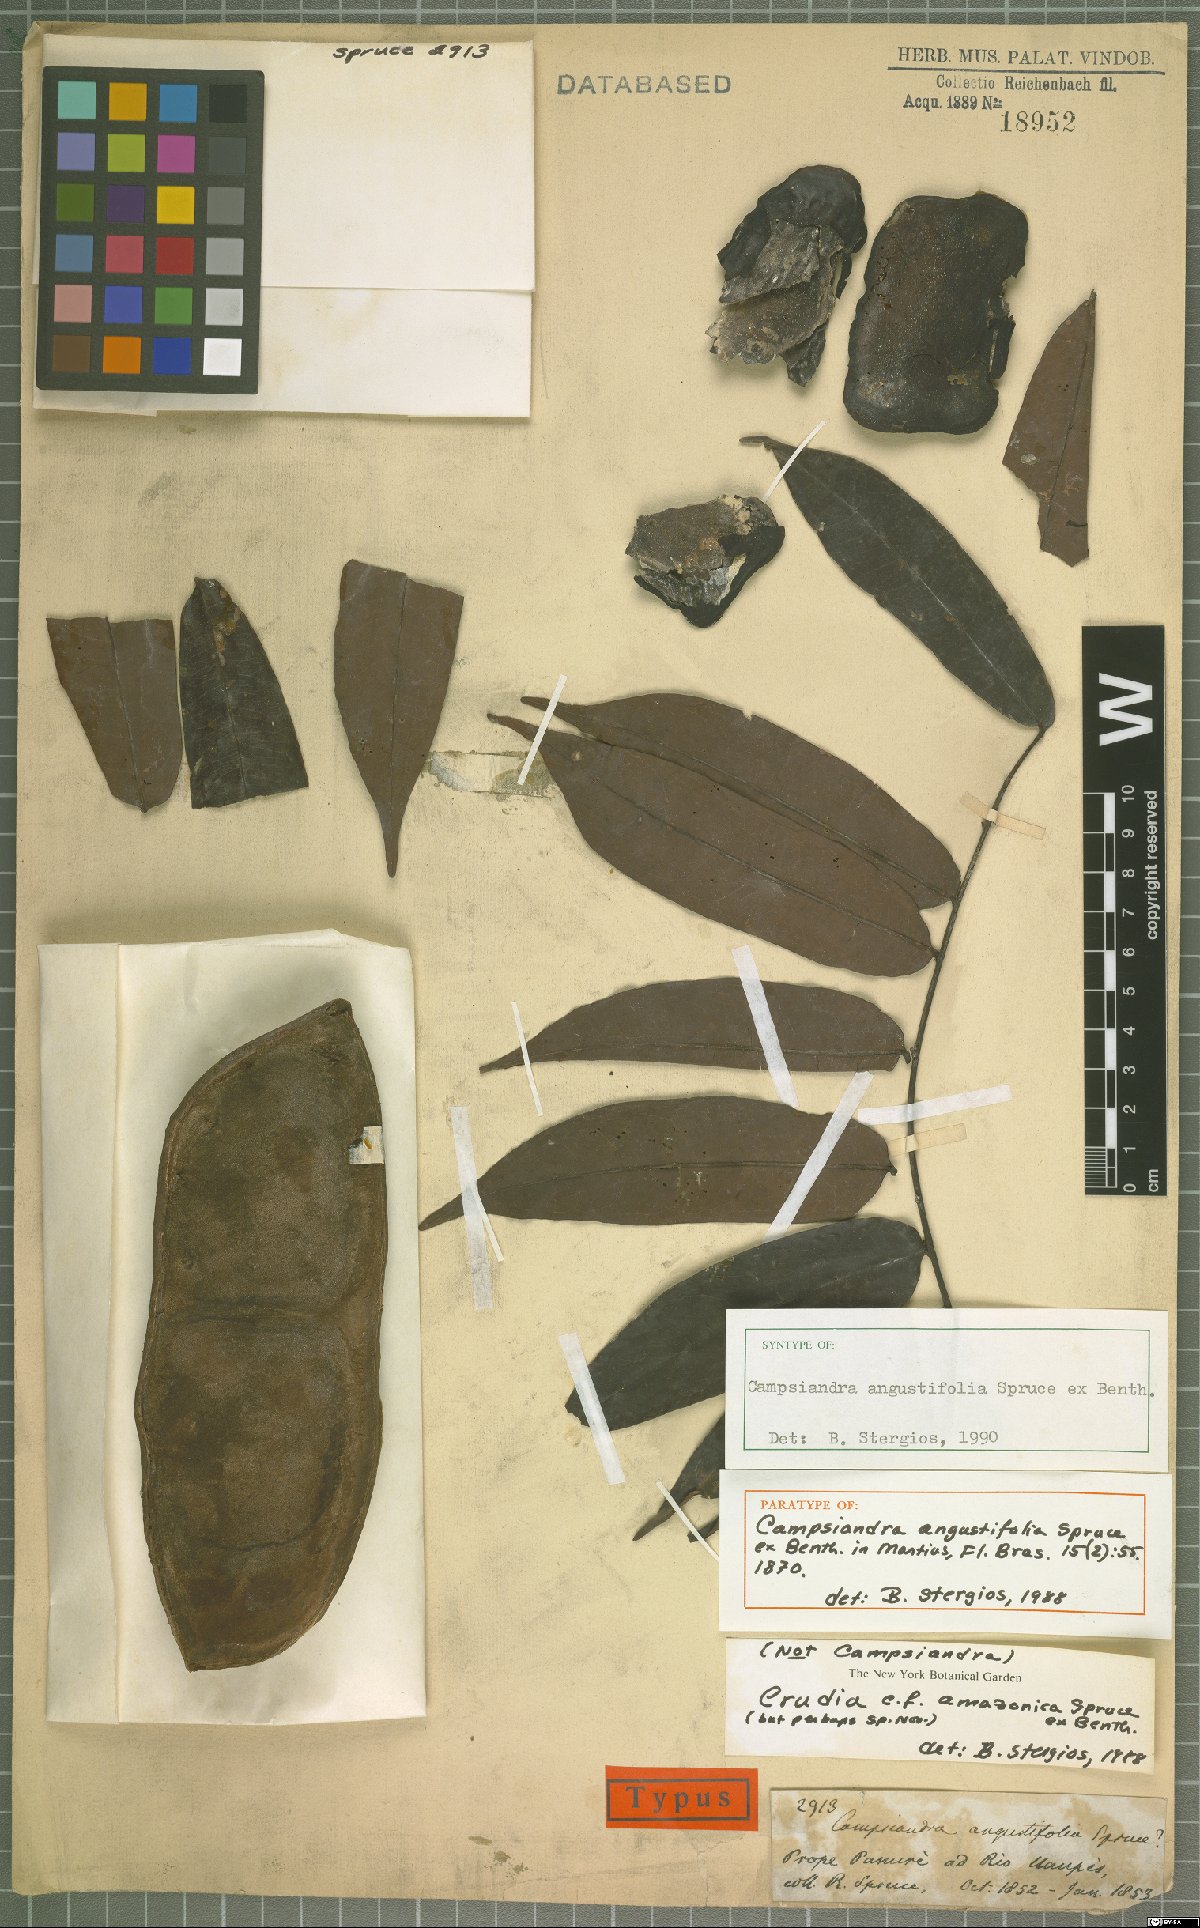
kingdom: Plantae
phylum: Tracheophyta
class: Magnoliopsida
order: Fabales
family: Fabaceae
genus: Crudia
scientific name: Crudia amazonica
